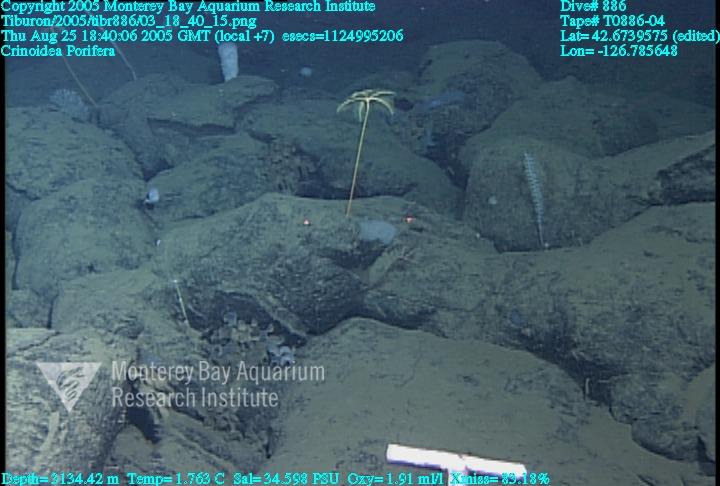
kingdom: Animalia
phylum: Porifera
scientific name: Porifera
